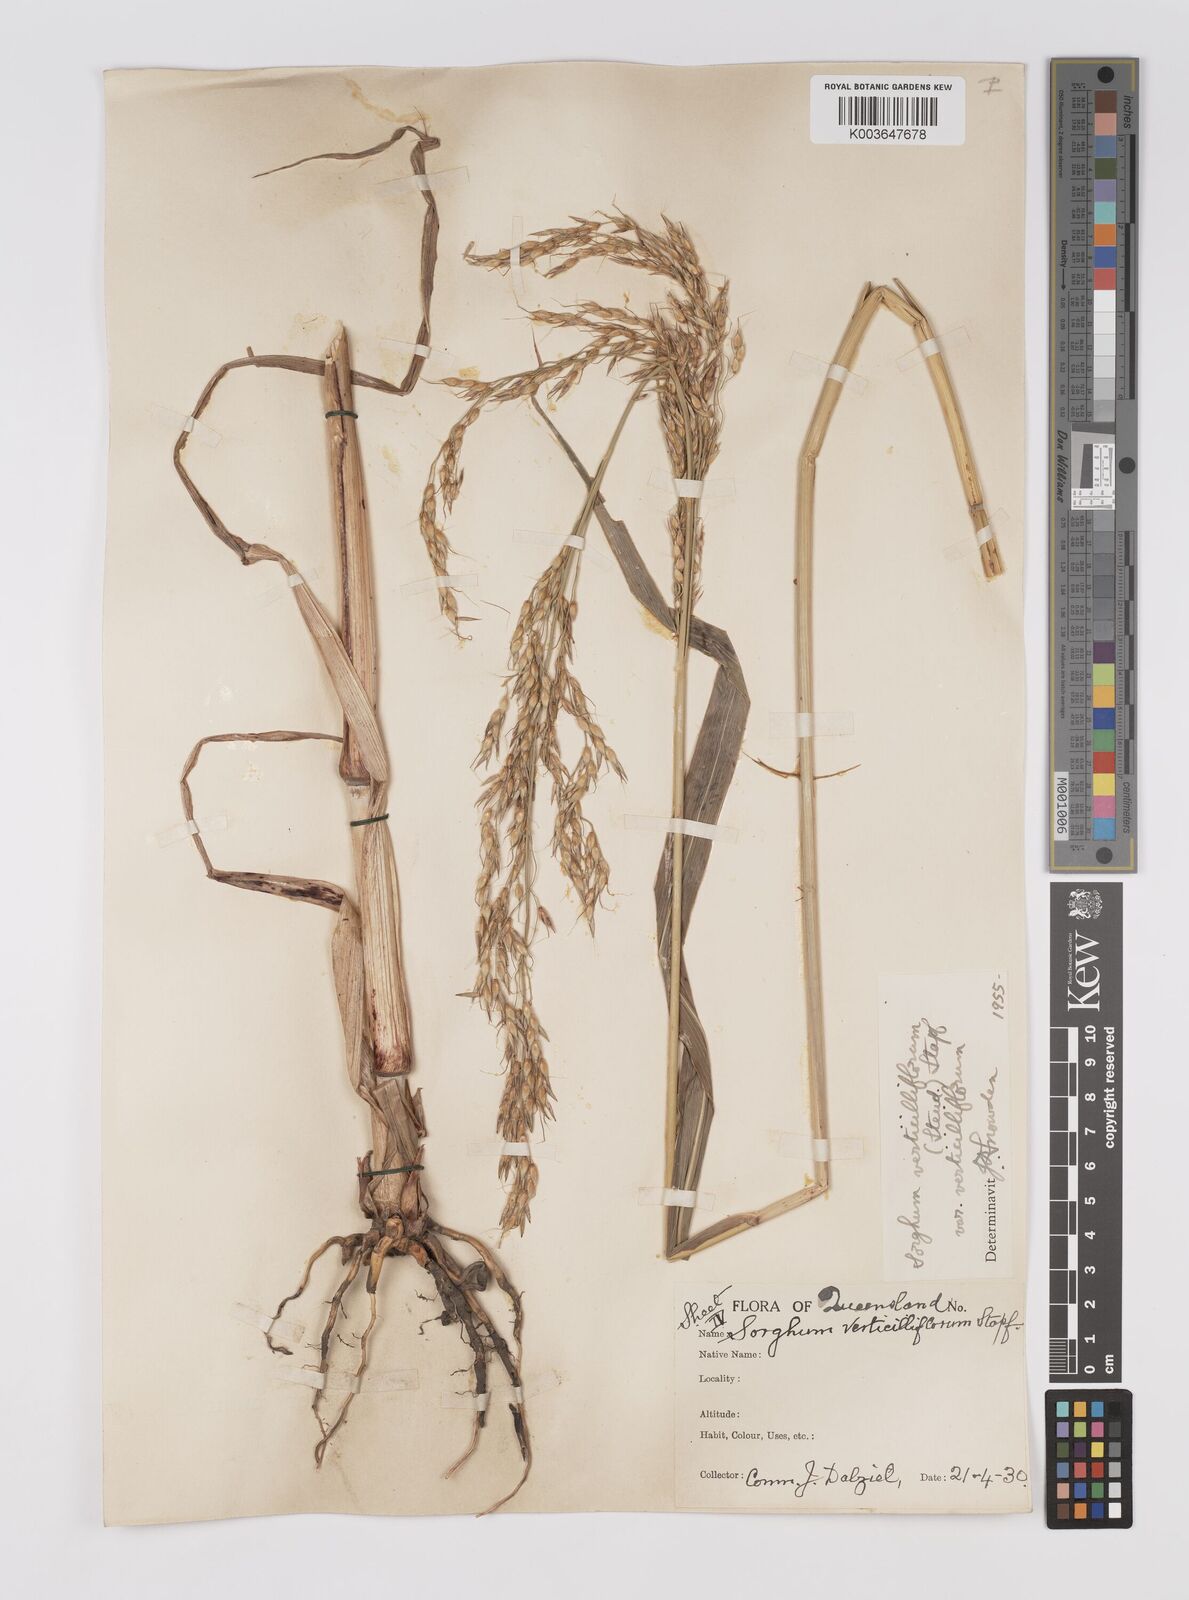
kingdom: Plantae
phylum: Tracheophyta
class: Liliopsida
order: Poales
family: Poaceae
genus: Sorghum
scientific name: Sorghum arundinaceum
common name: Sorghum
